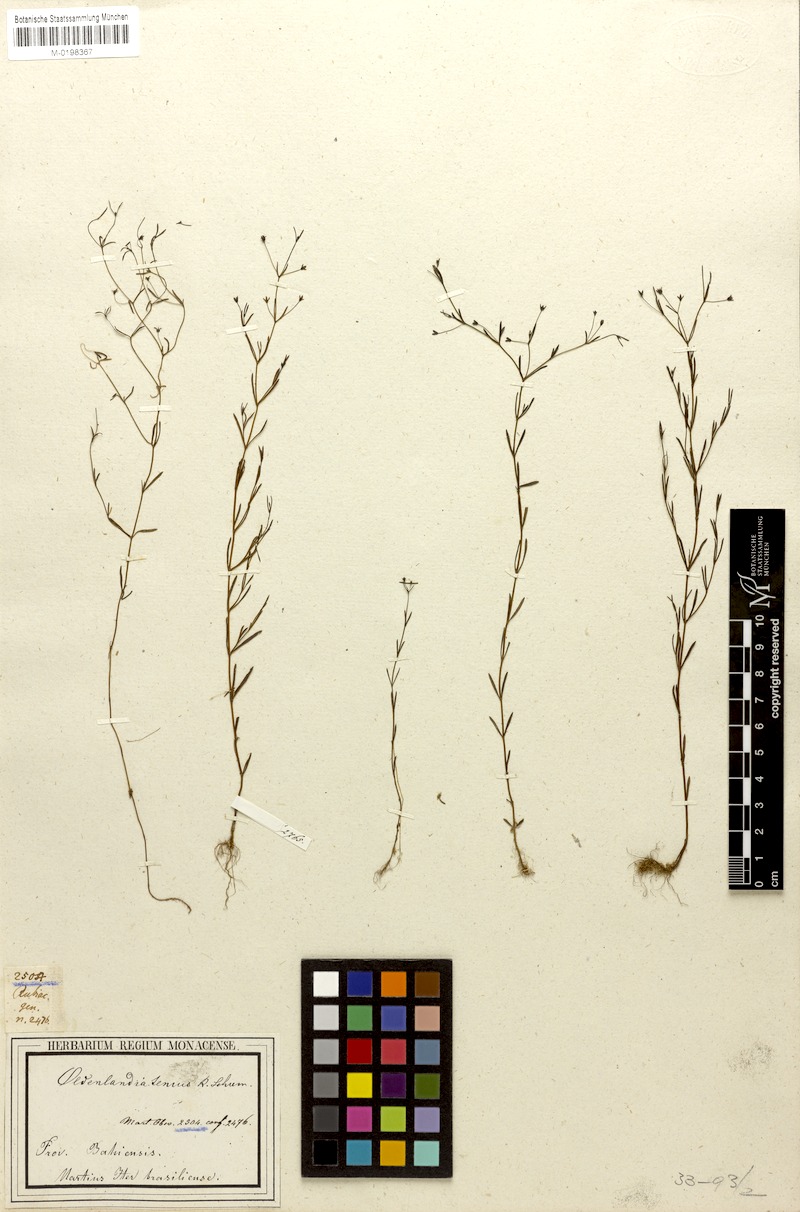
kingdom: Plantae
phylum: Tracheophyta
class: Magnoliopsida
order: Gentianales
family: Rubiaceae
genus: Oldenlandia
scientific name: Oldenlandia tenuis
